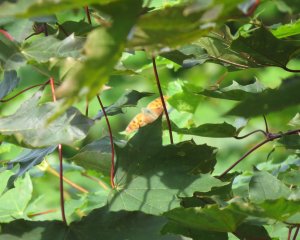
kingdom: Animalia
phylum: Arthropoda
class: Insecta
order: Lepidoptera
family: Nymphalidae
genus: Polygonia
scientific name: Polygonia interrogationis
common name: Question Mark
